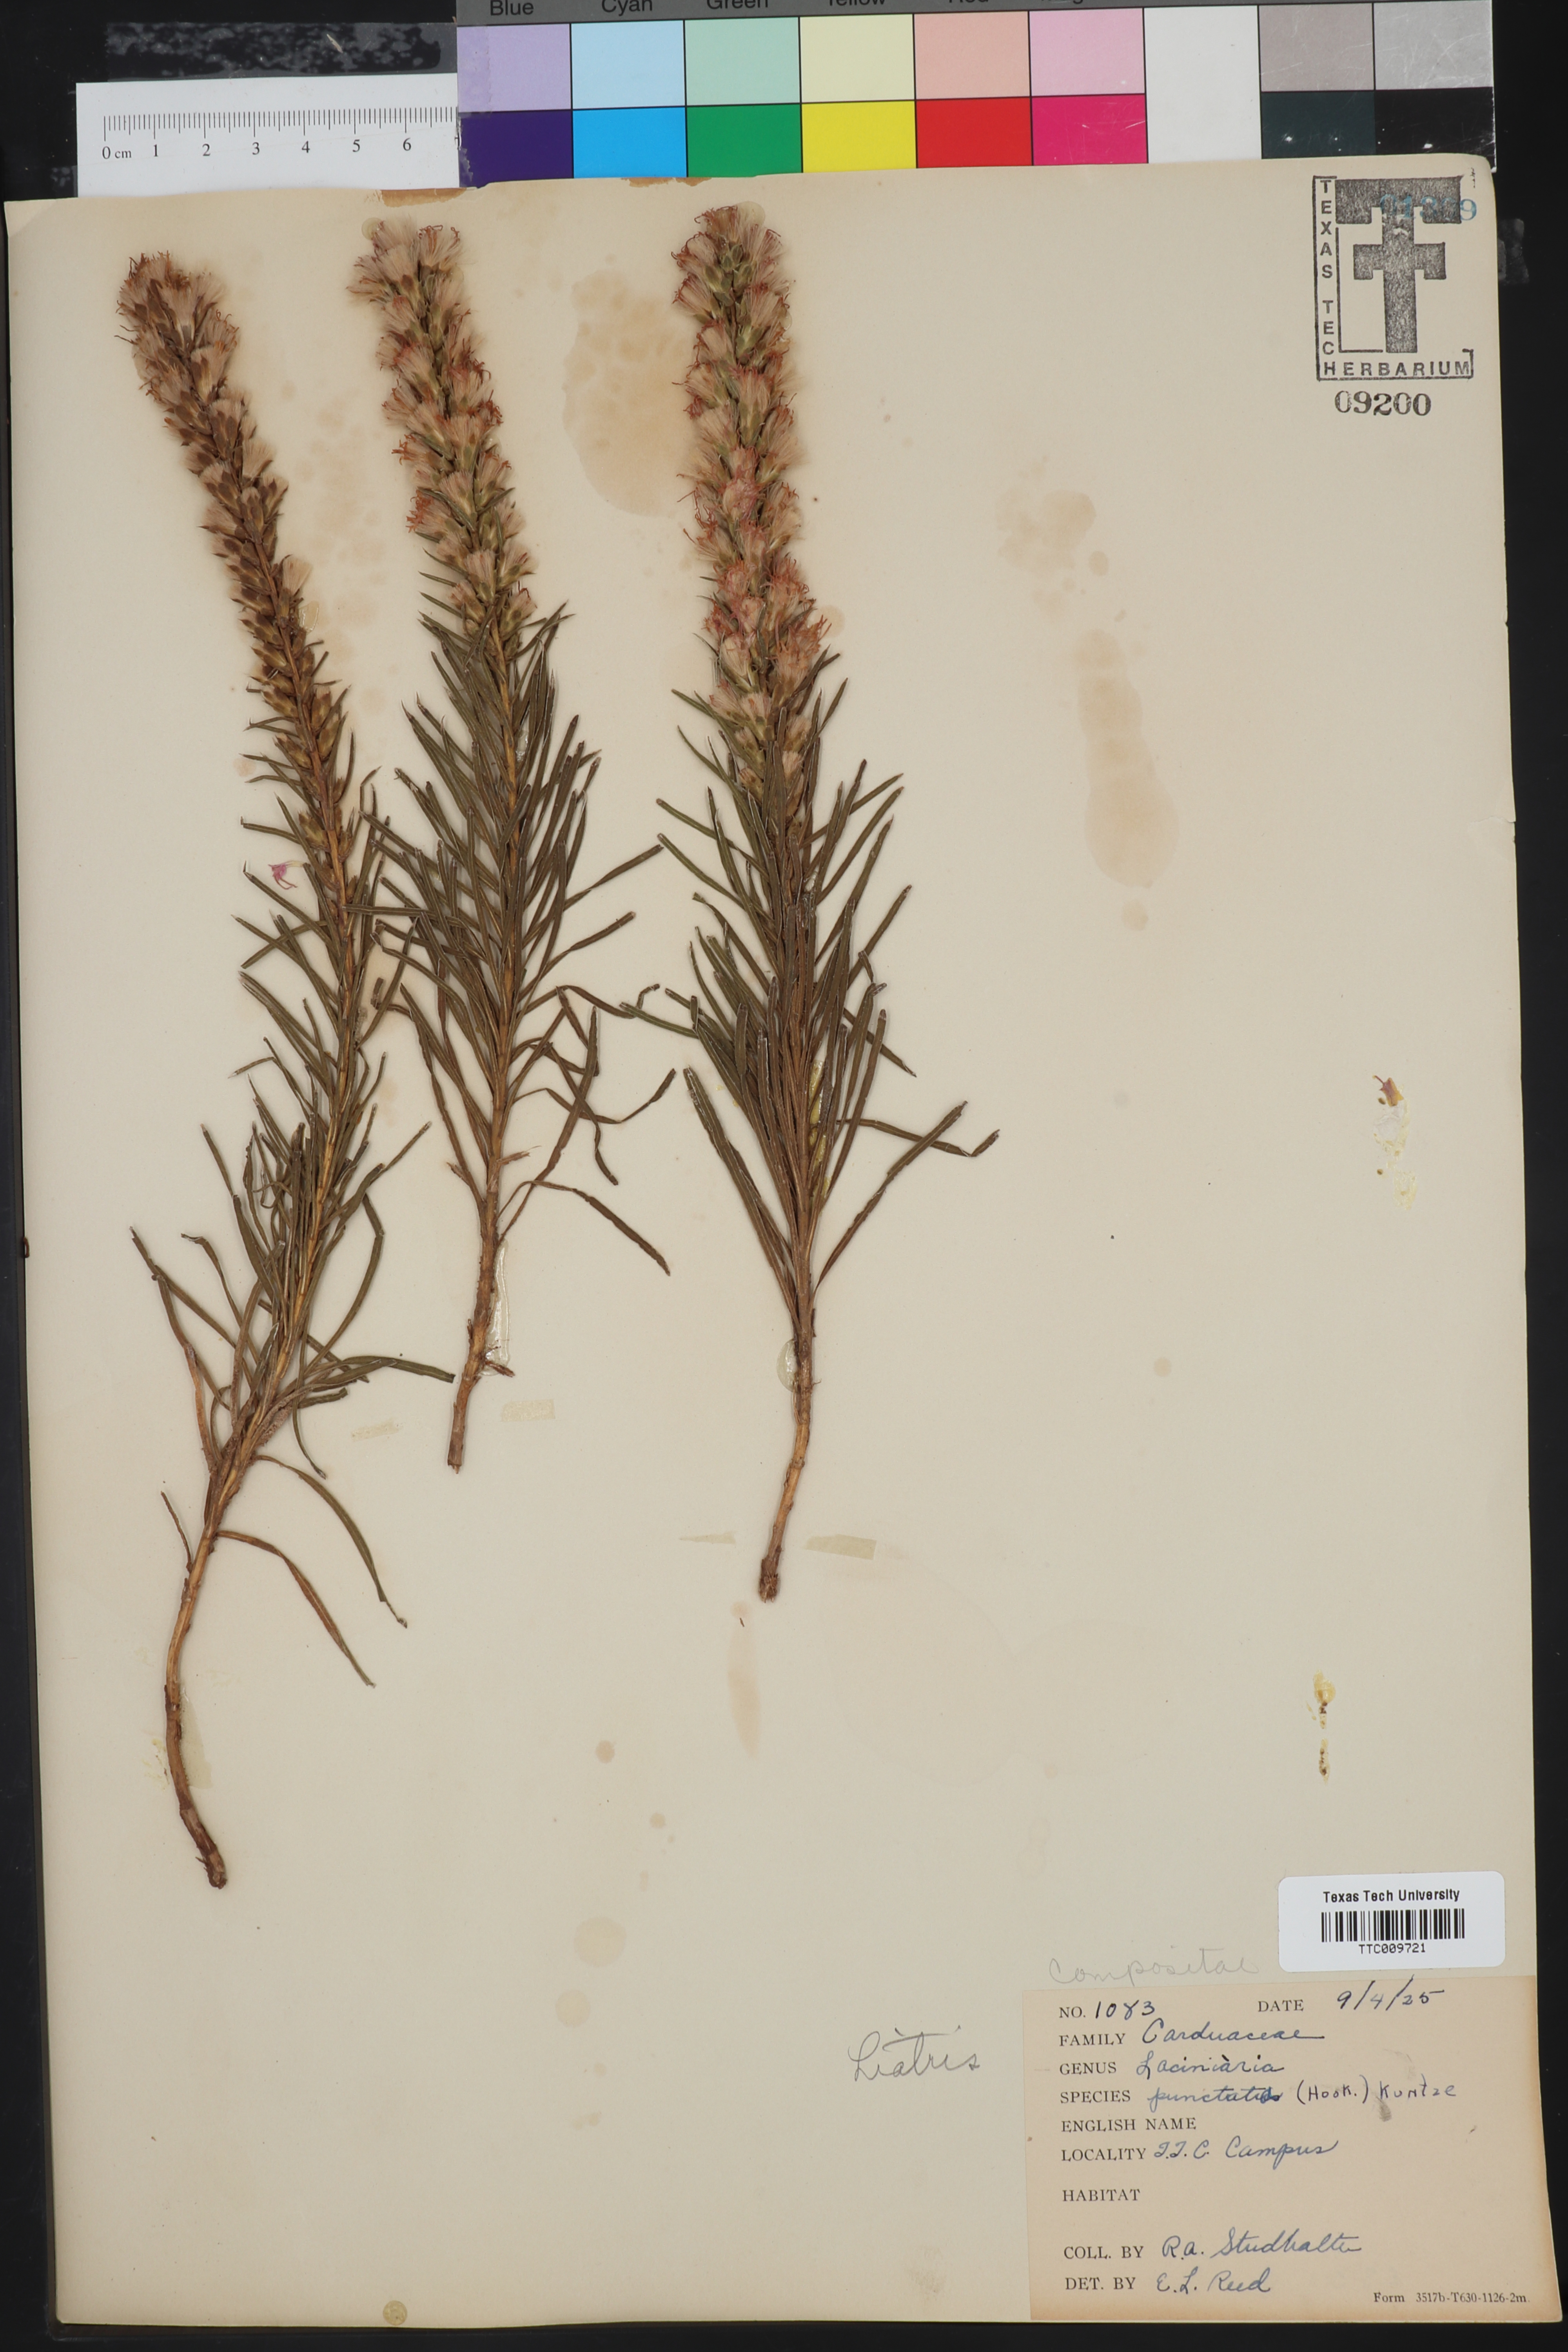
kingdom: Plantae
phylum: Tracheophyta
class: Magnoliopsida
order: Asterales
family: Asteraceae
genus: Liatris
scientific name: Liatris punctata
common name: Dotted gayfeather
